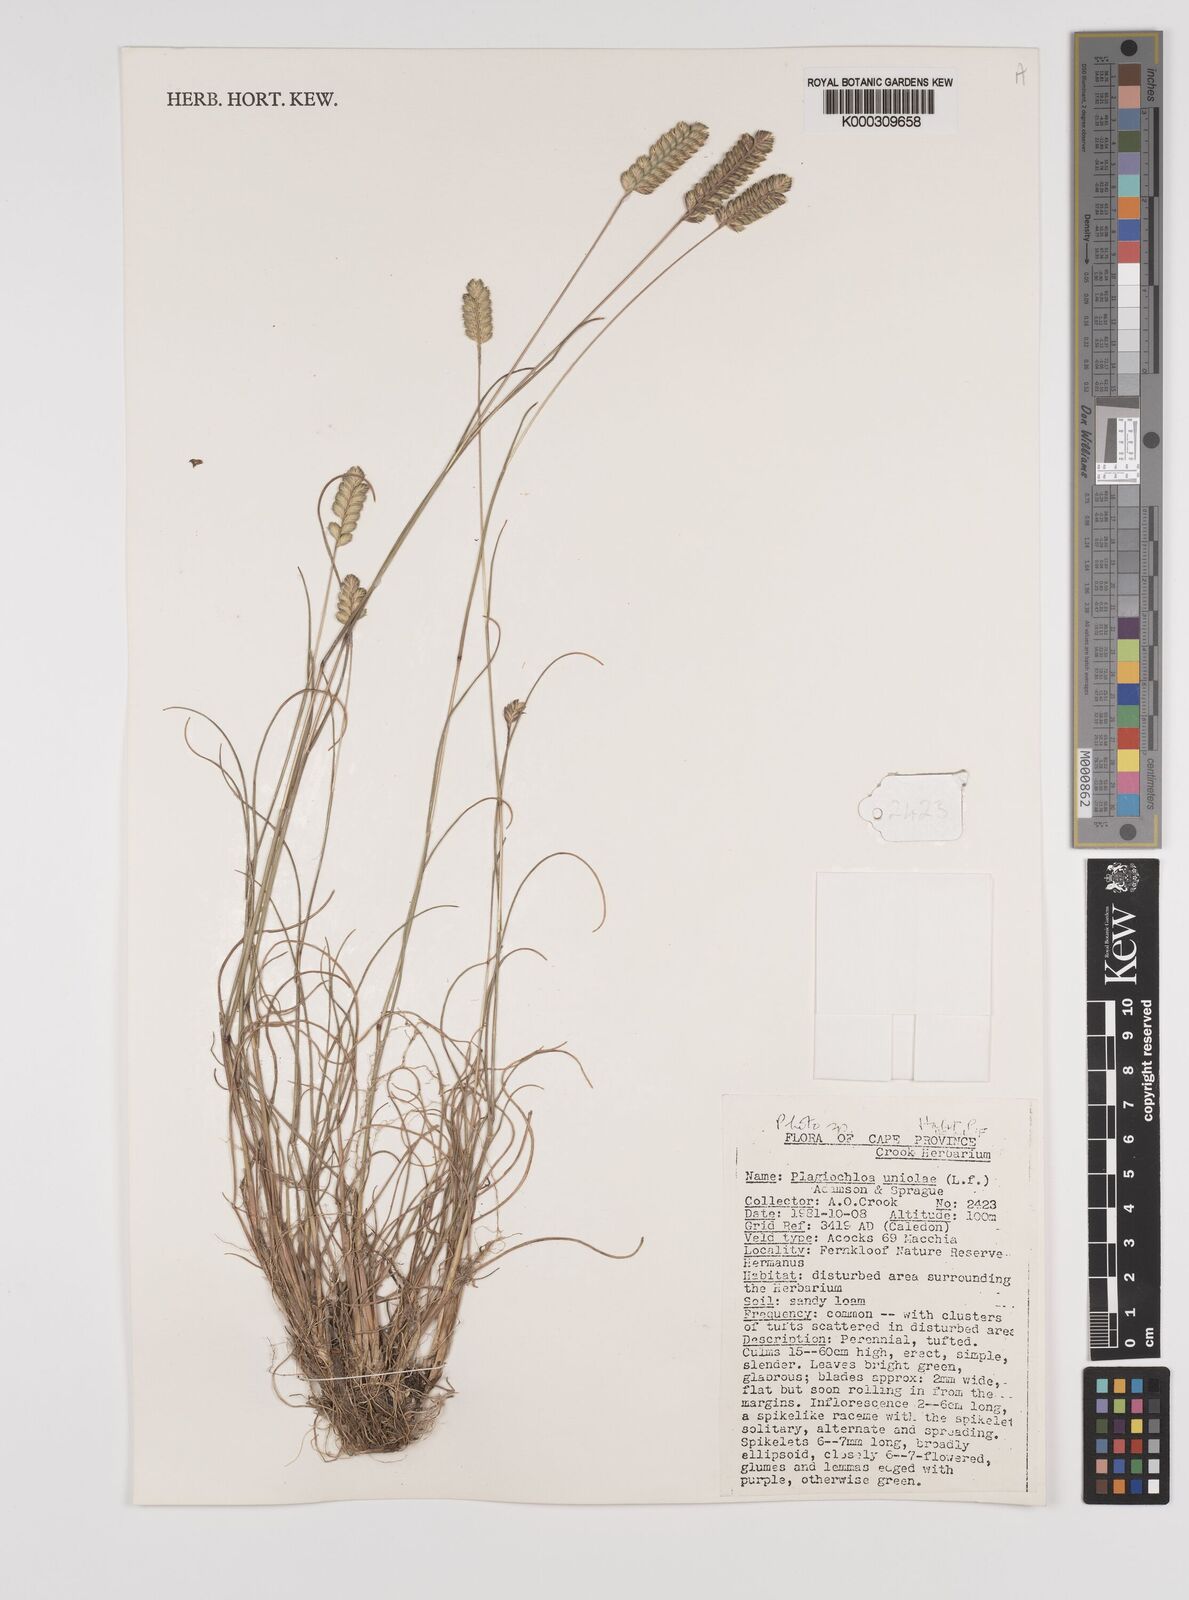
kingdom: Plantae
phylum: Tracheophyta
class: Liliopsida
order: Poales
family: Poaceae
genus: Tribolium
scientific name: Tribolium uniolae
